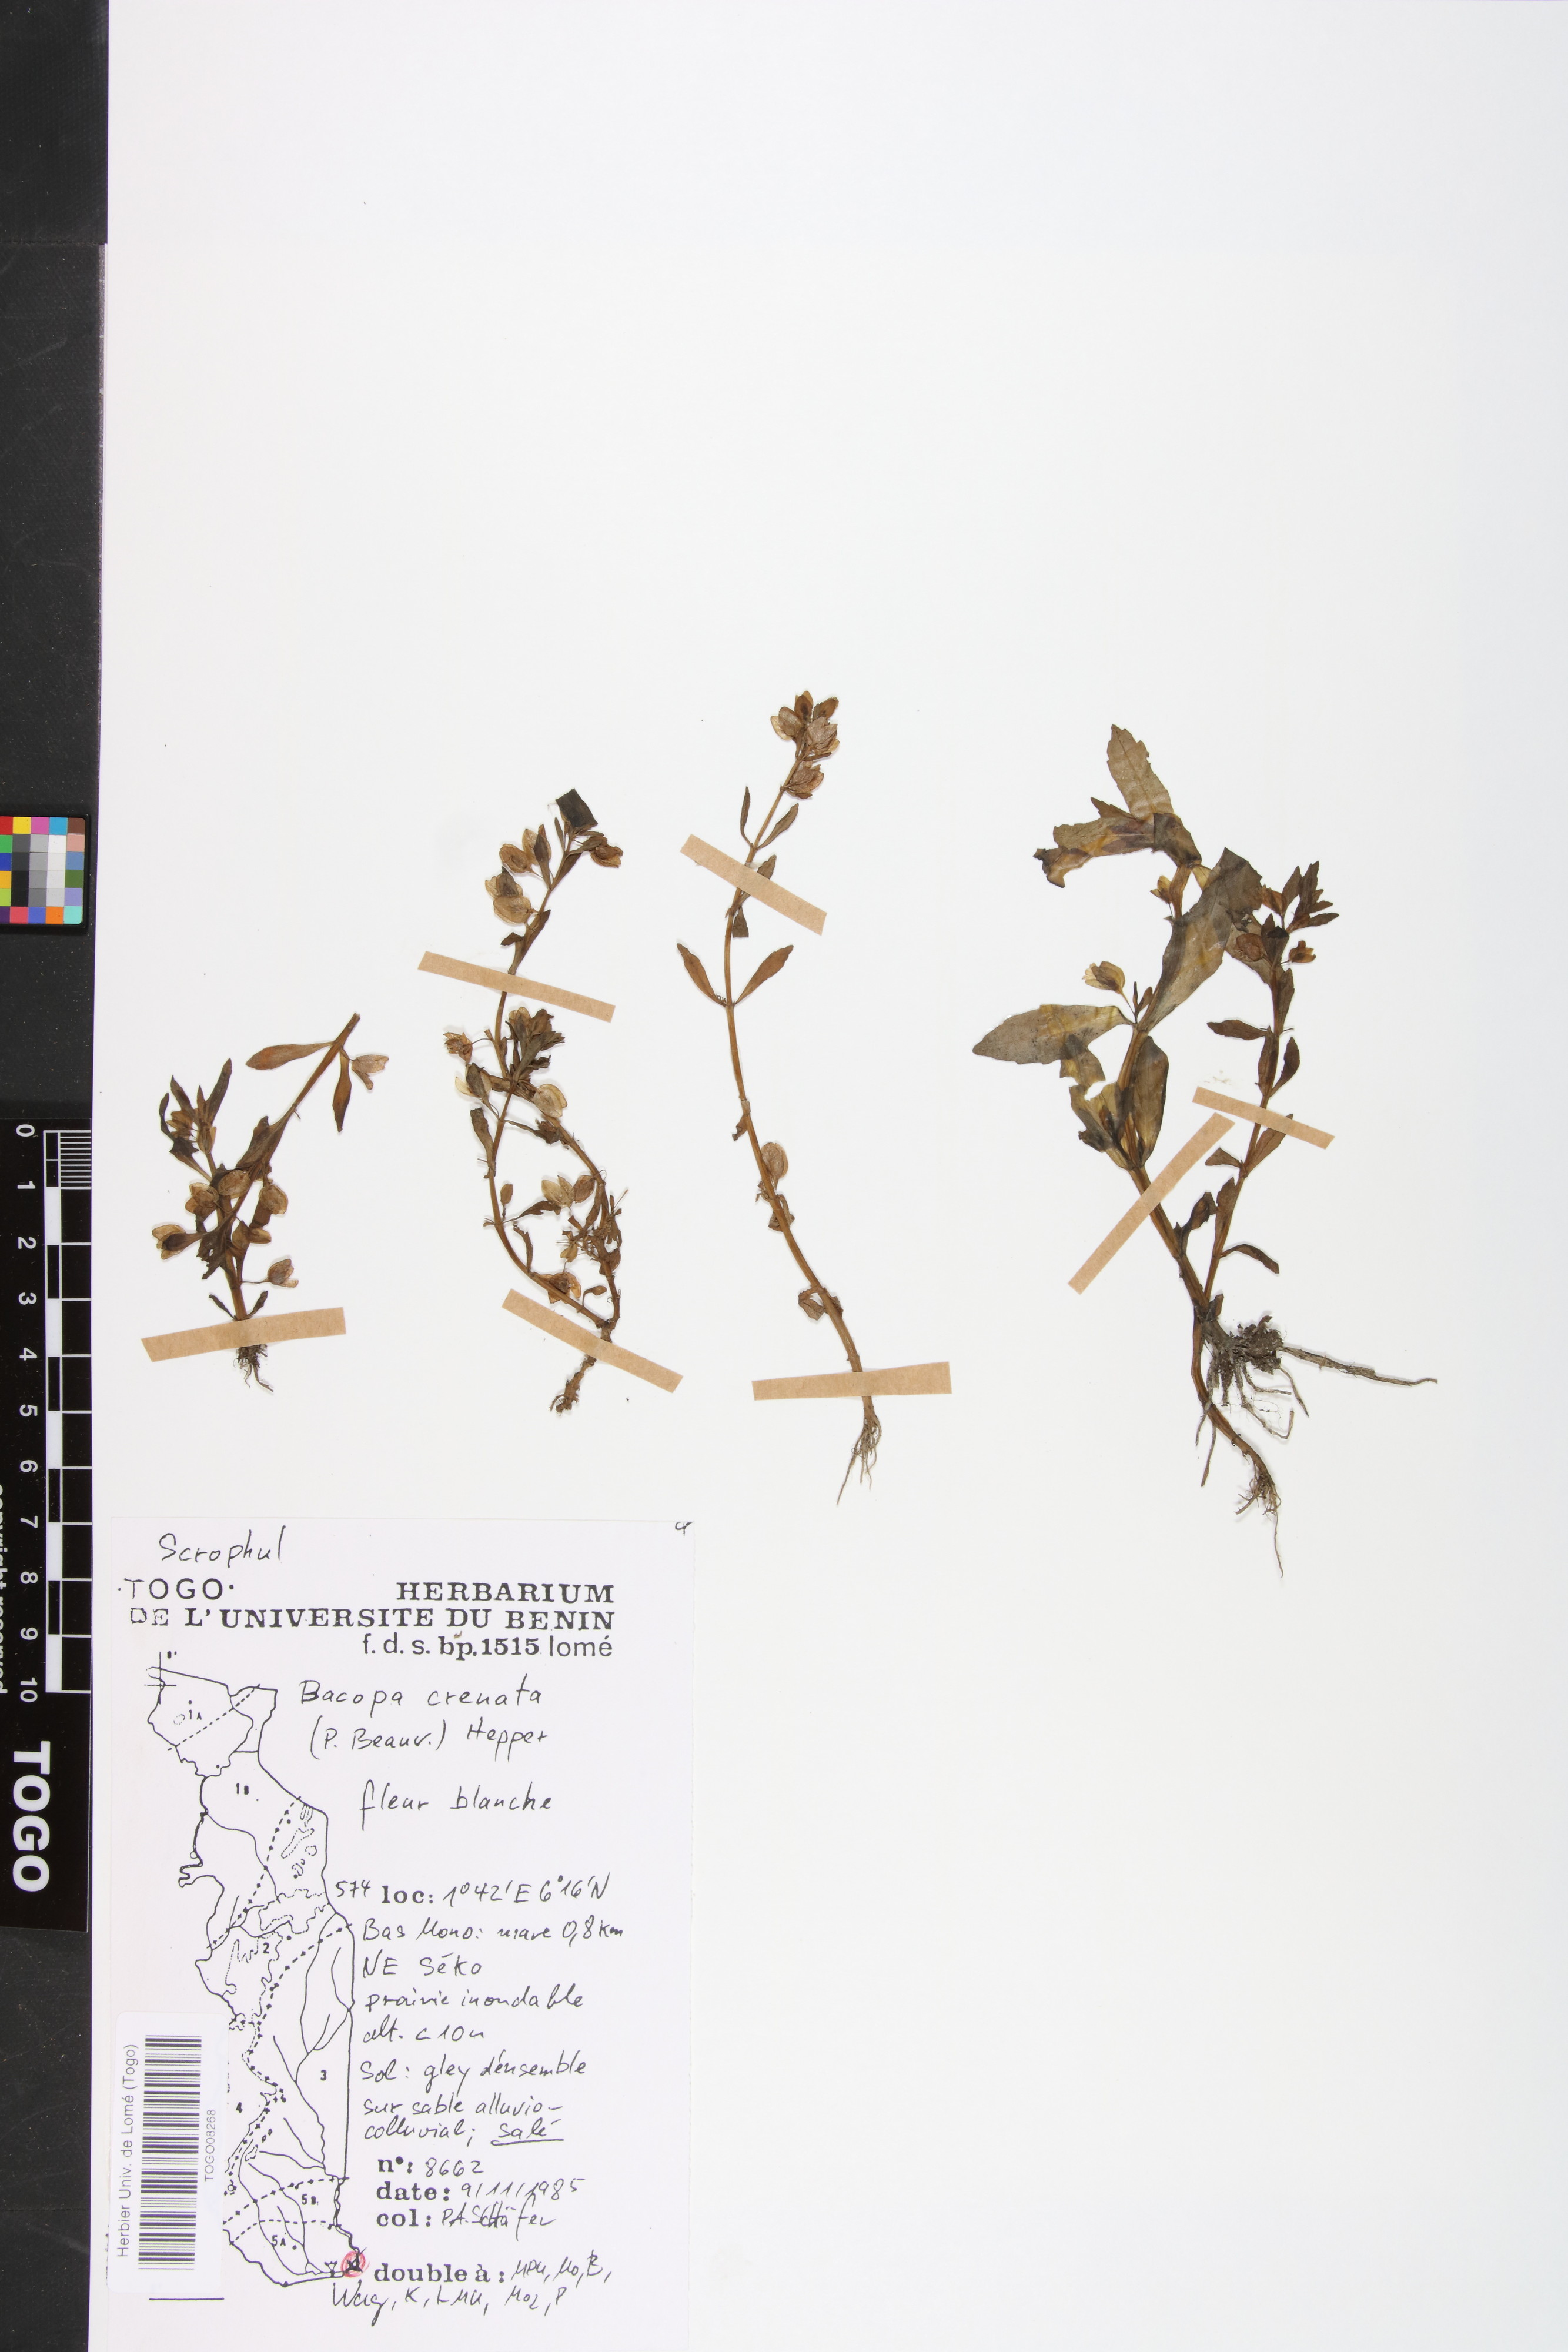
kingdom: Plantae
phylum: Tracheophyta
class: Magnoliopsida
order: Lamiales
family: Plantaginaceae
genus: Bacopa
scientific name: Bacopa crenata
